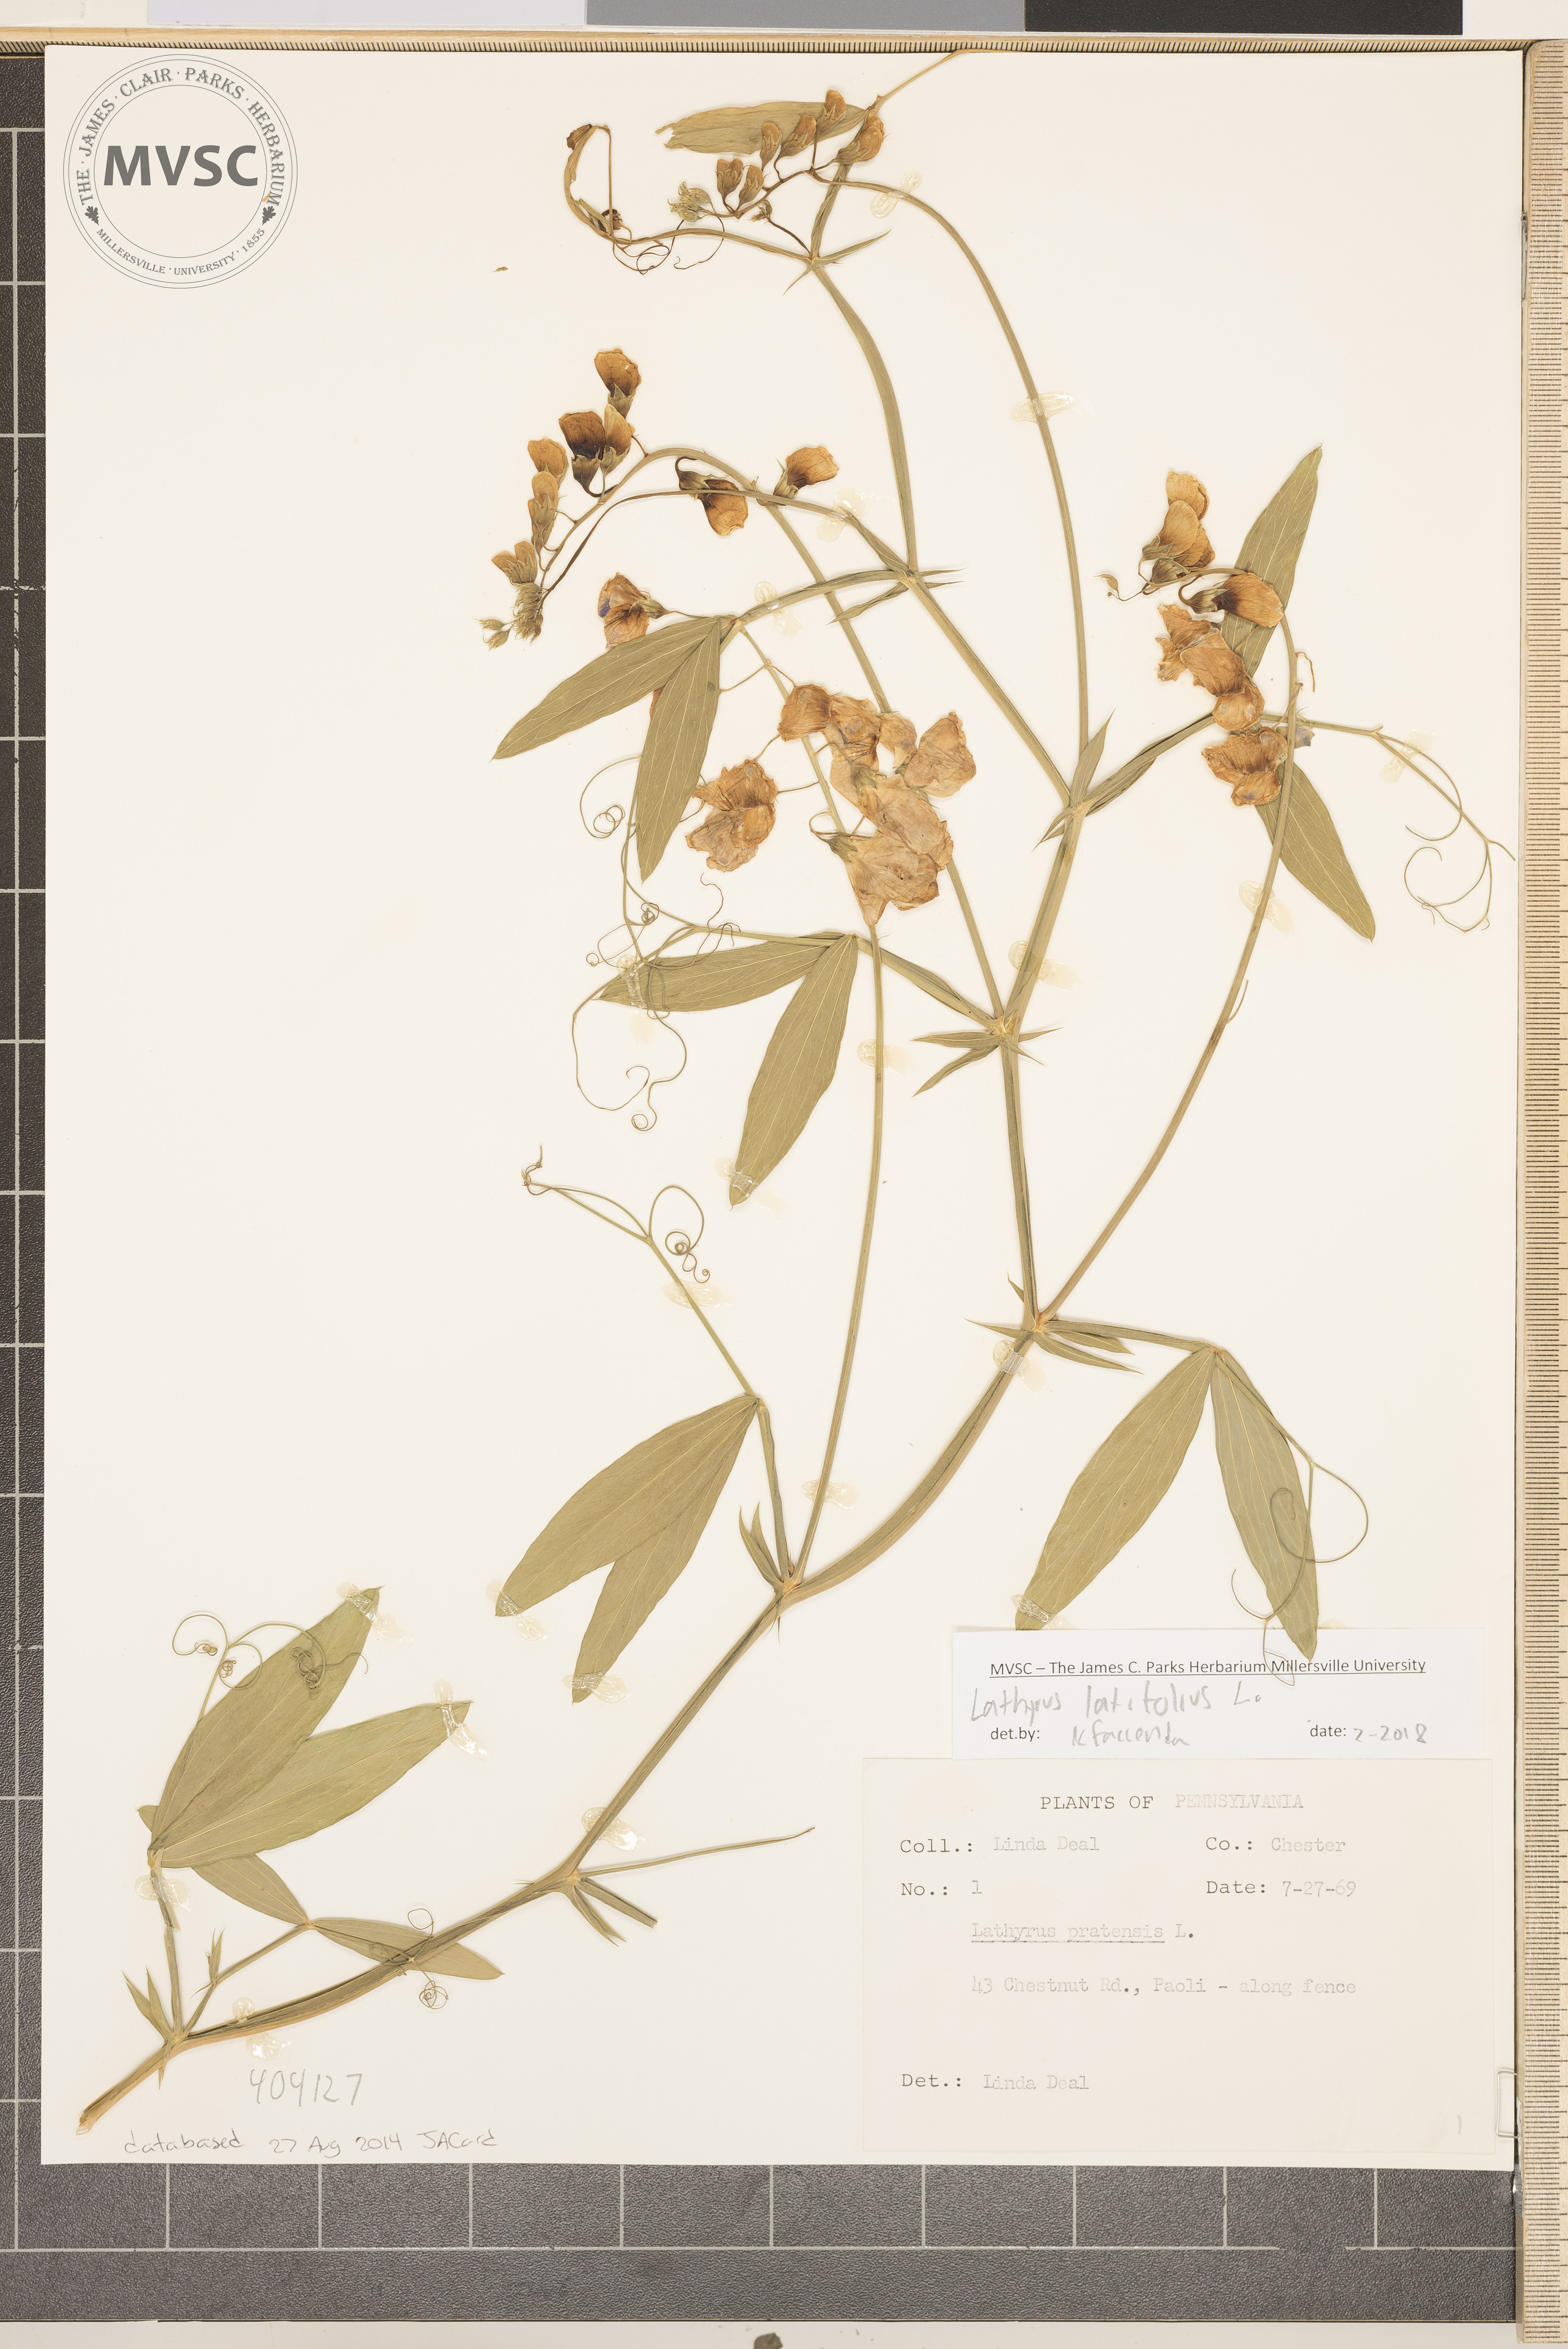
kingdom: Plantae
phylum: Tracheophyta
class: Magnoliopsida
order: Fabales
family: Fabaceae
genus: Lathyrus
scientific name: Lathyrus latifolius
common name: Sweetpea
